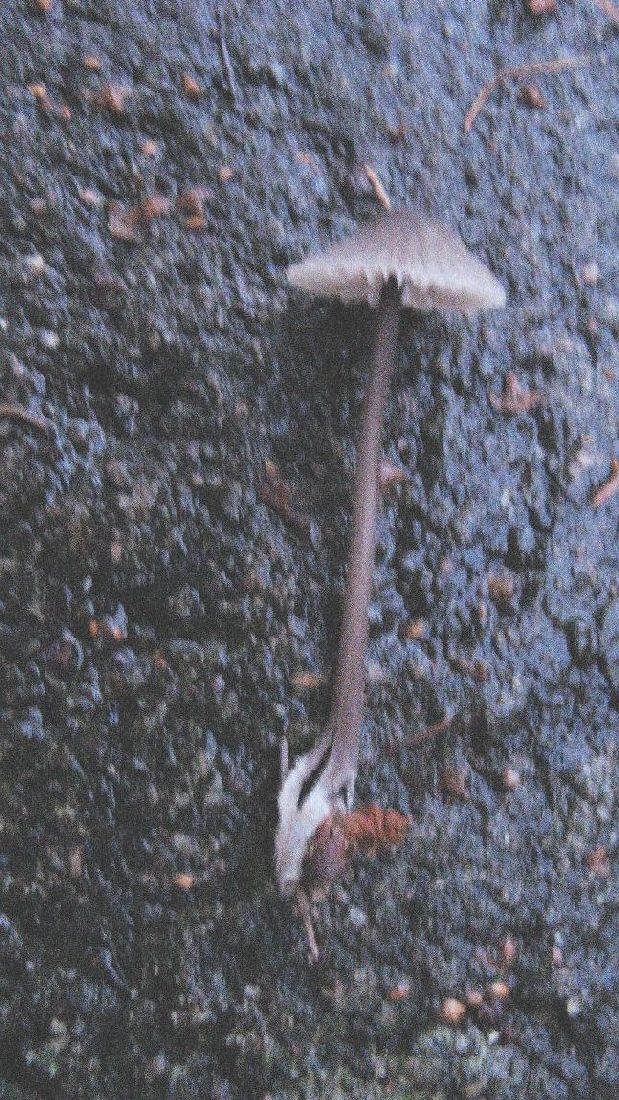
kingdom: Fungi
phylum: Basidiomycota
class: Agaricomycetes
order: Agaricales
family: Mycenaceae
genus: Mycena
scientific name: Mycena galopus
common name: hvidmælket huesvamp
